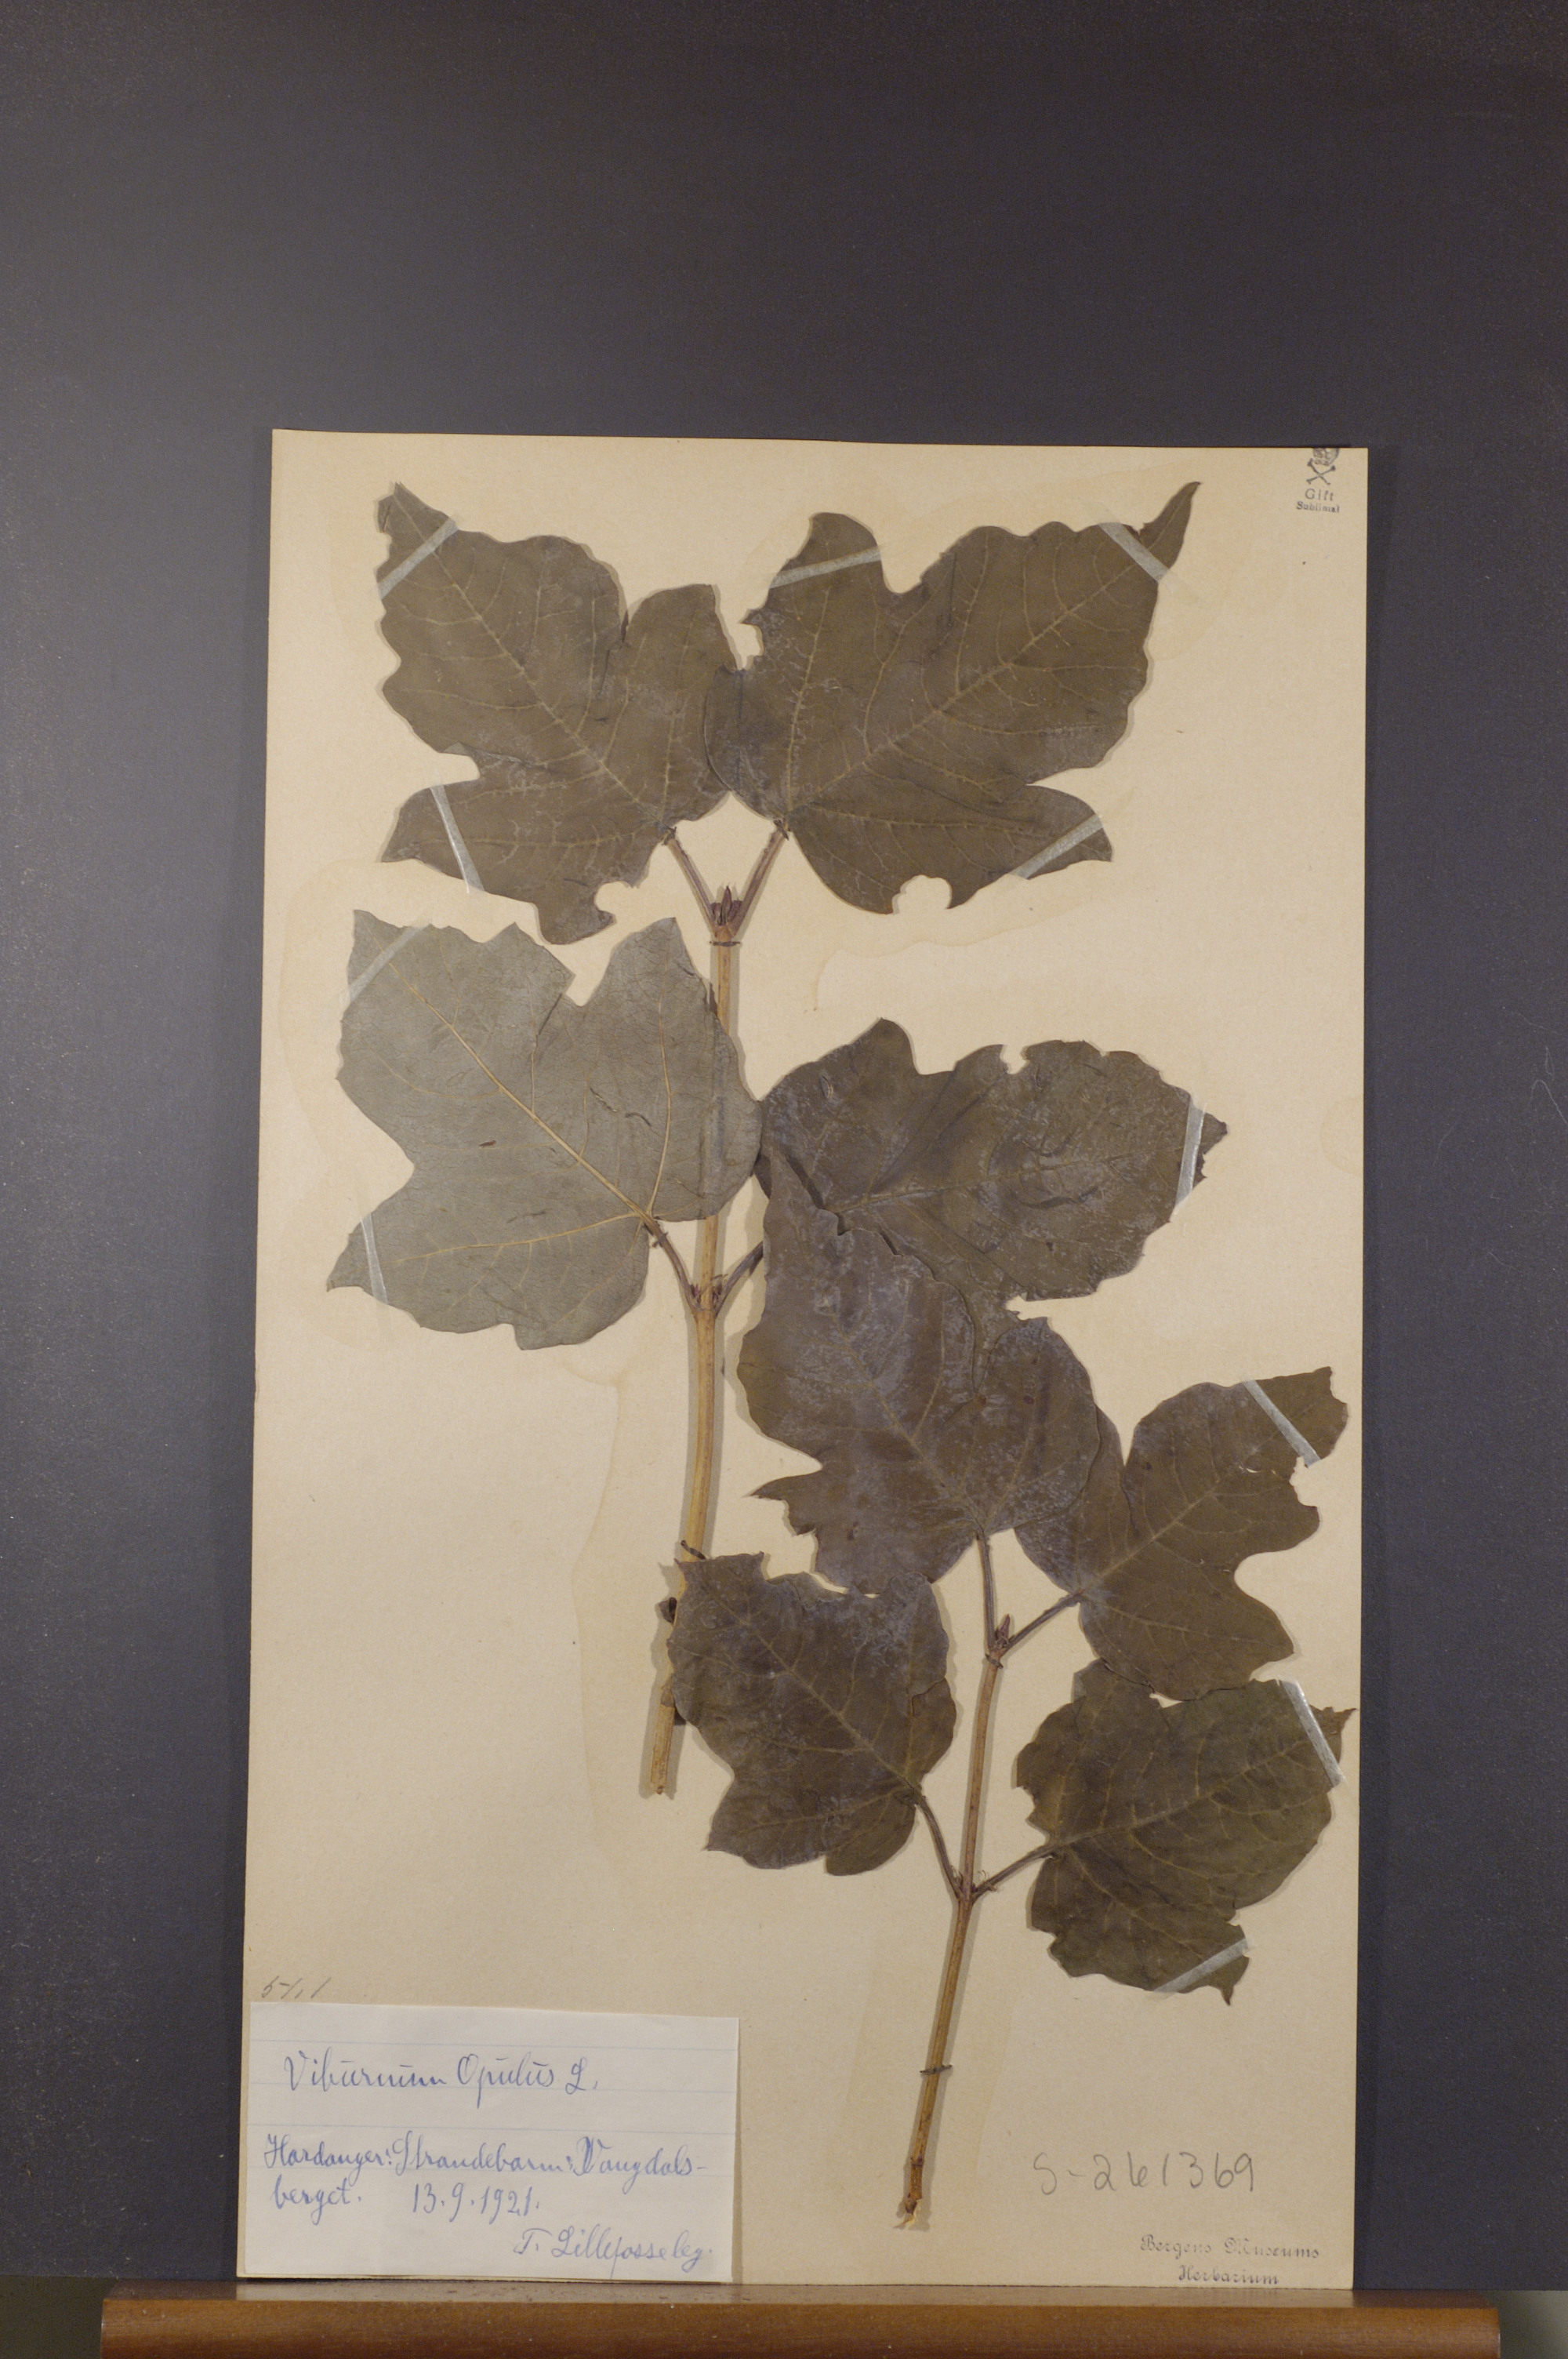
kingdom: Plantae
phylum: Tracheophyta
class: Magnoliopsida
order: Dipsacales
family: Viburnaceae
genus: Viburnum
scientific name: Viburnum opulus
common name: Guelder-rose
